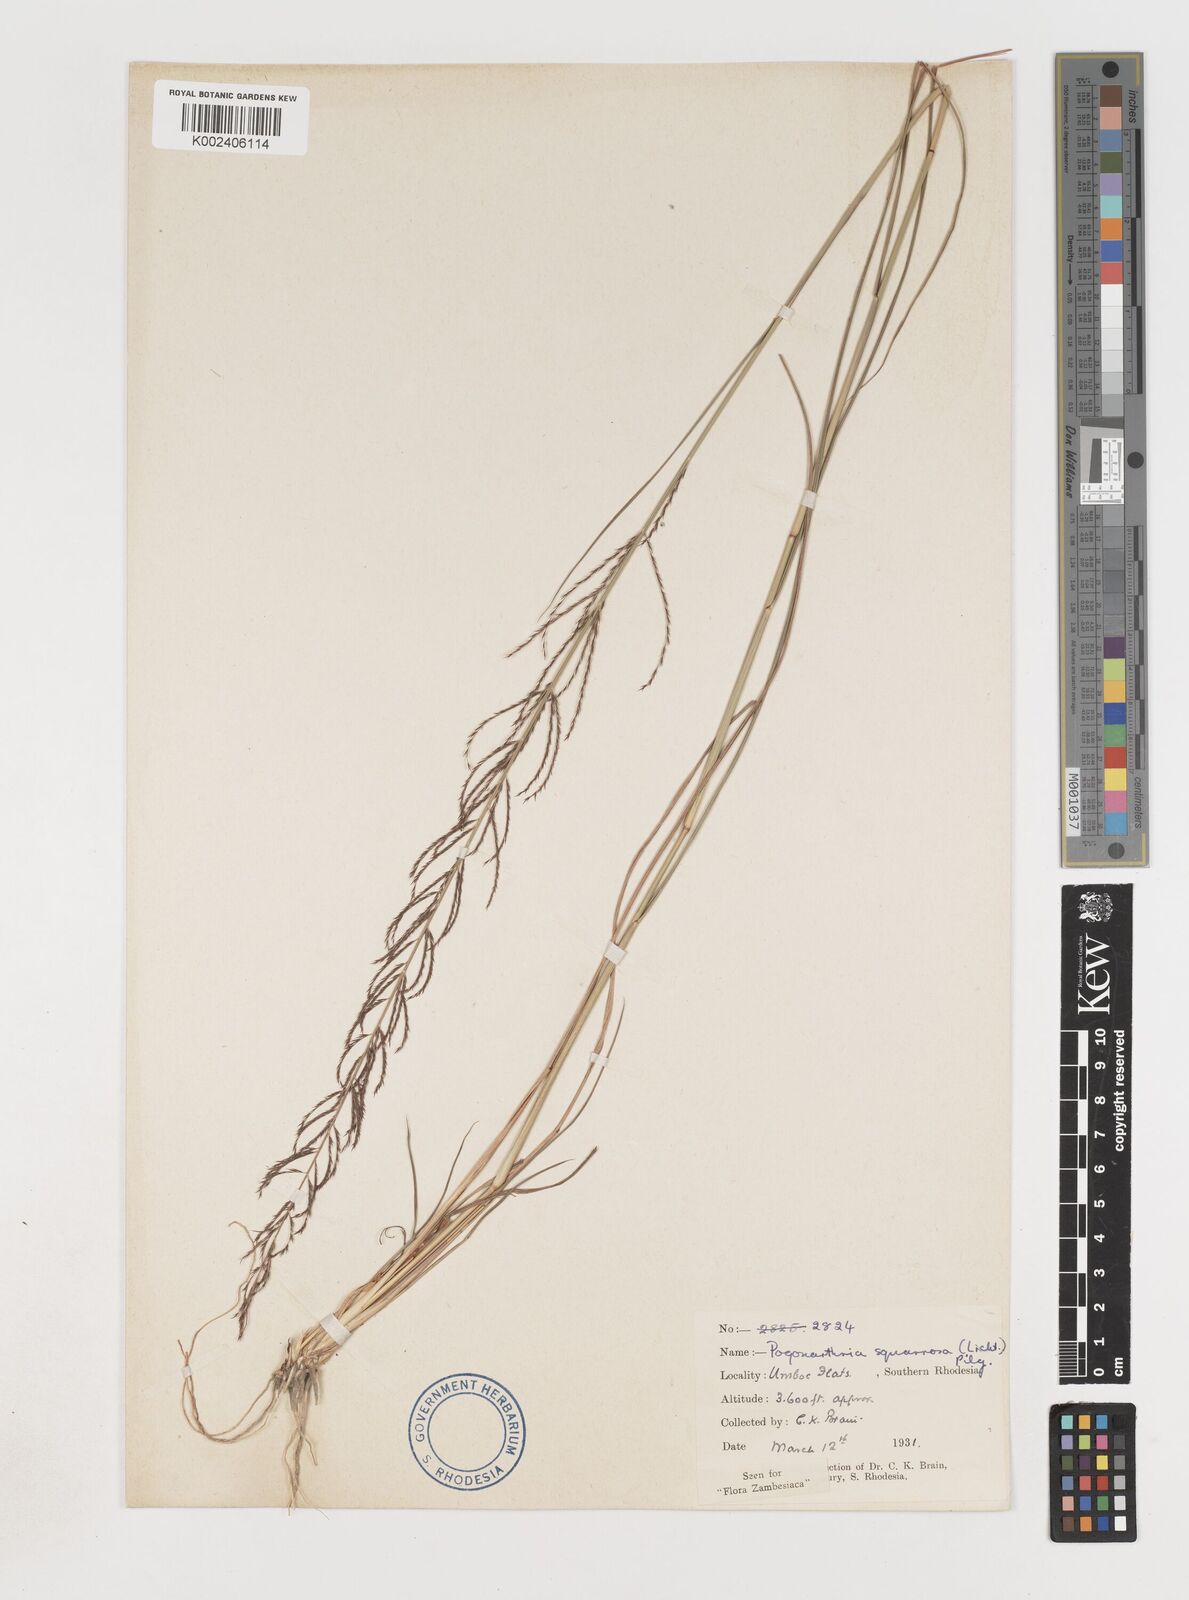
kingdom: Plantae
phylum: Tracheophyta
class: Liliopsida
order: Poales
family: Poaceae
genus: Pogonarthria
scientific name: Pogonarthria squarrosa
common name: Grass
